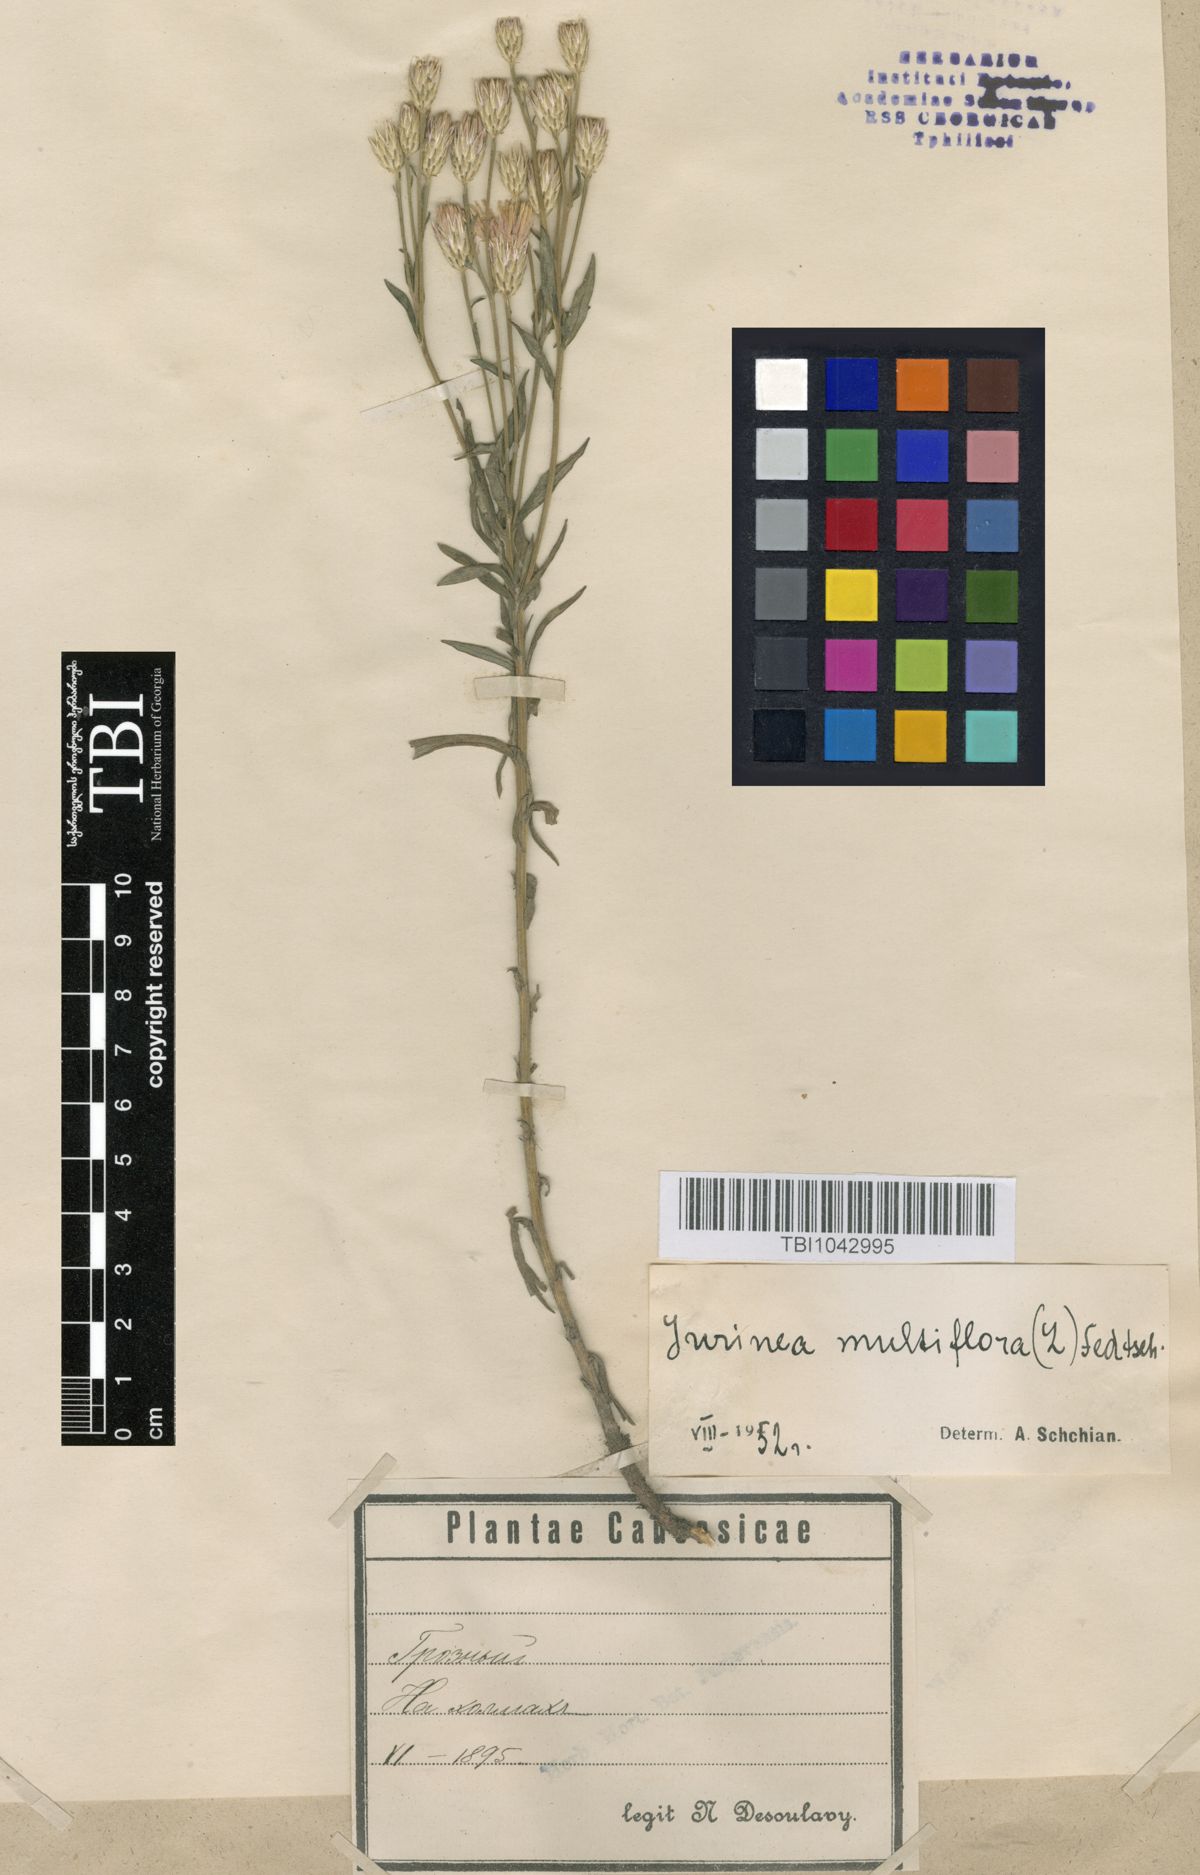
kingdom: Plantae
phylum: Tracheophyta
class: Magnoliopsida
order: Asterales
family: Asteraceae
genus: Jurinea
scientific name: Jurinea multiflora
